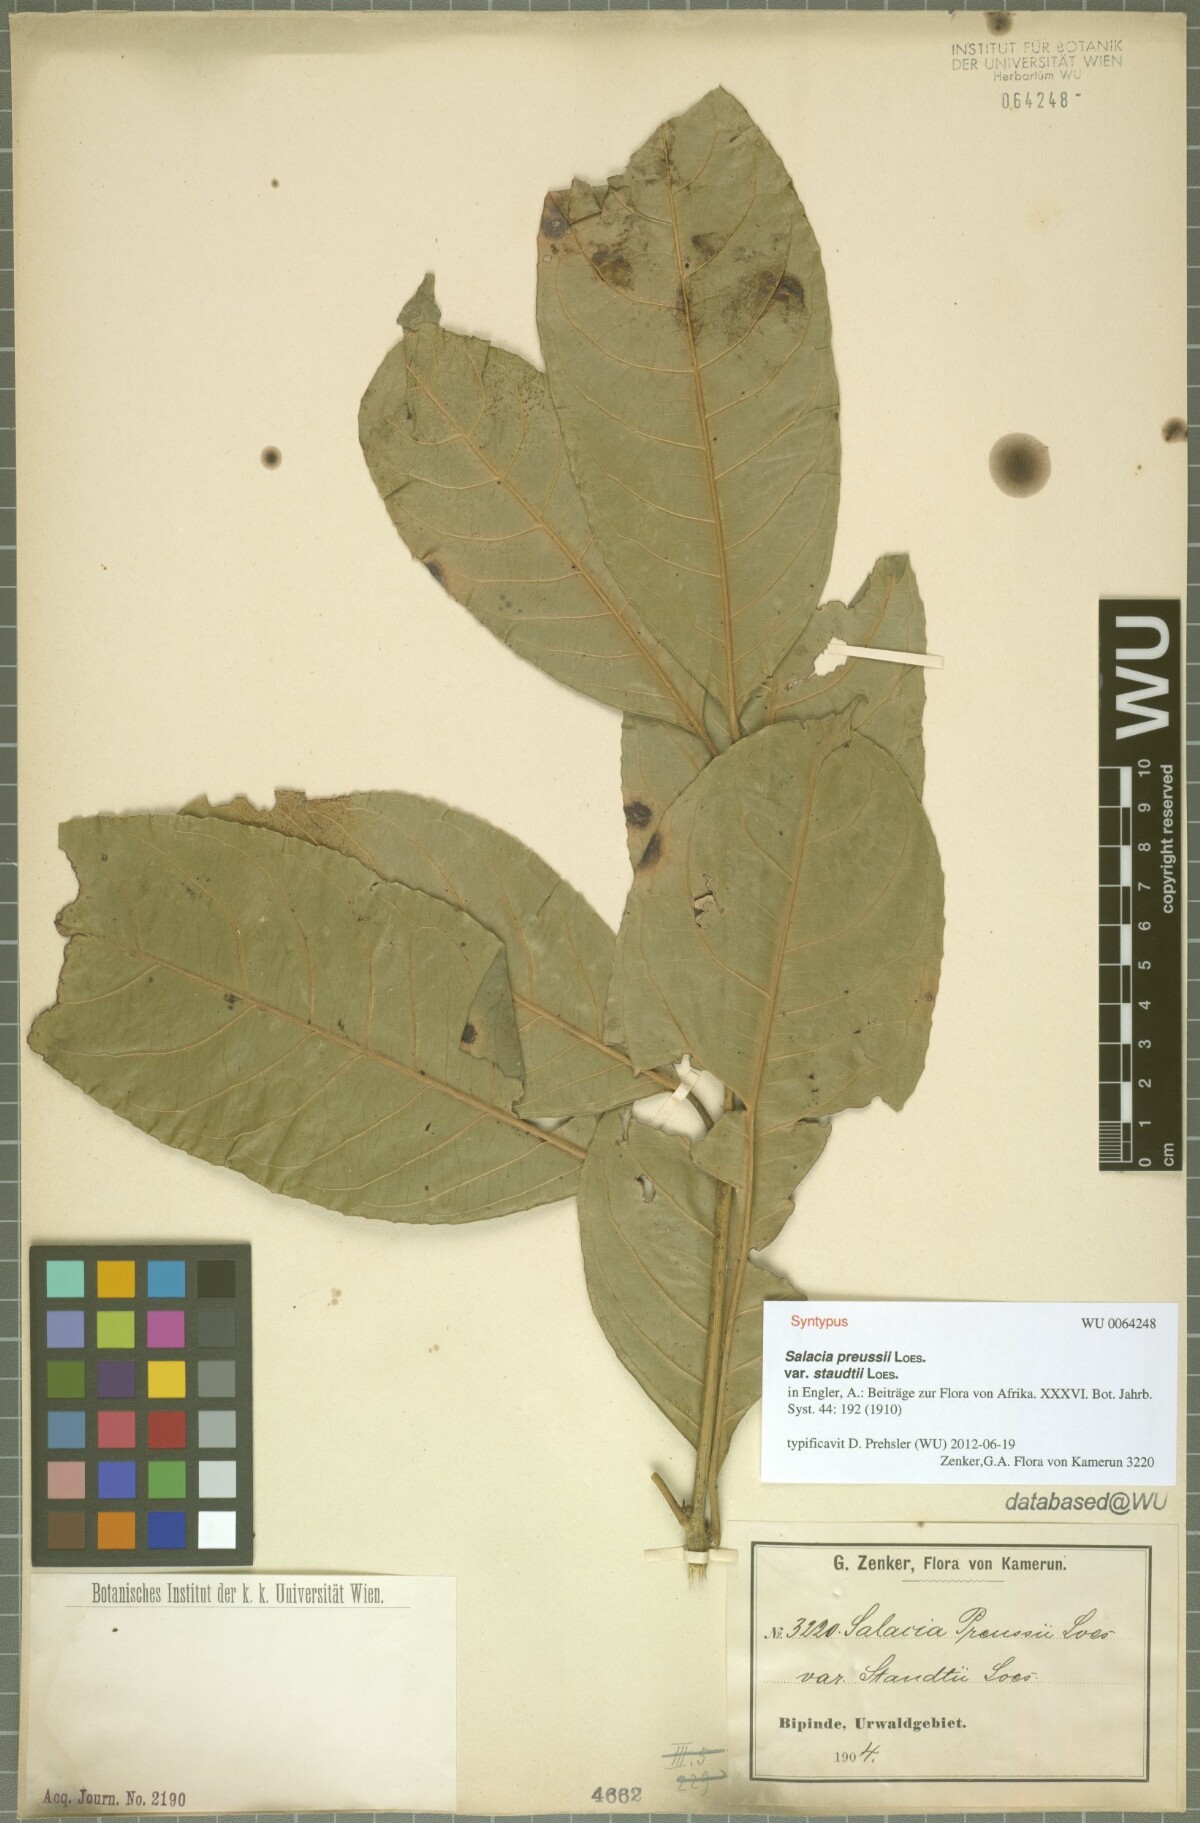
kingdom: Plantae
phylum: Tracheophyta
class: Magnoliopsida
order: Celastrales
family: Celastraceae
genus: Salacia
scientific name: Salacia preussii
